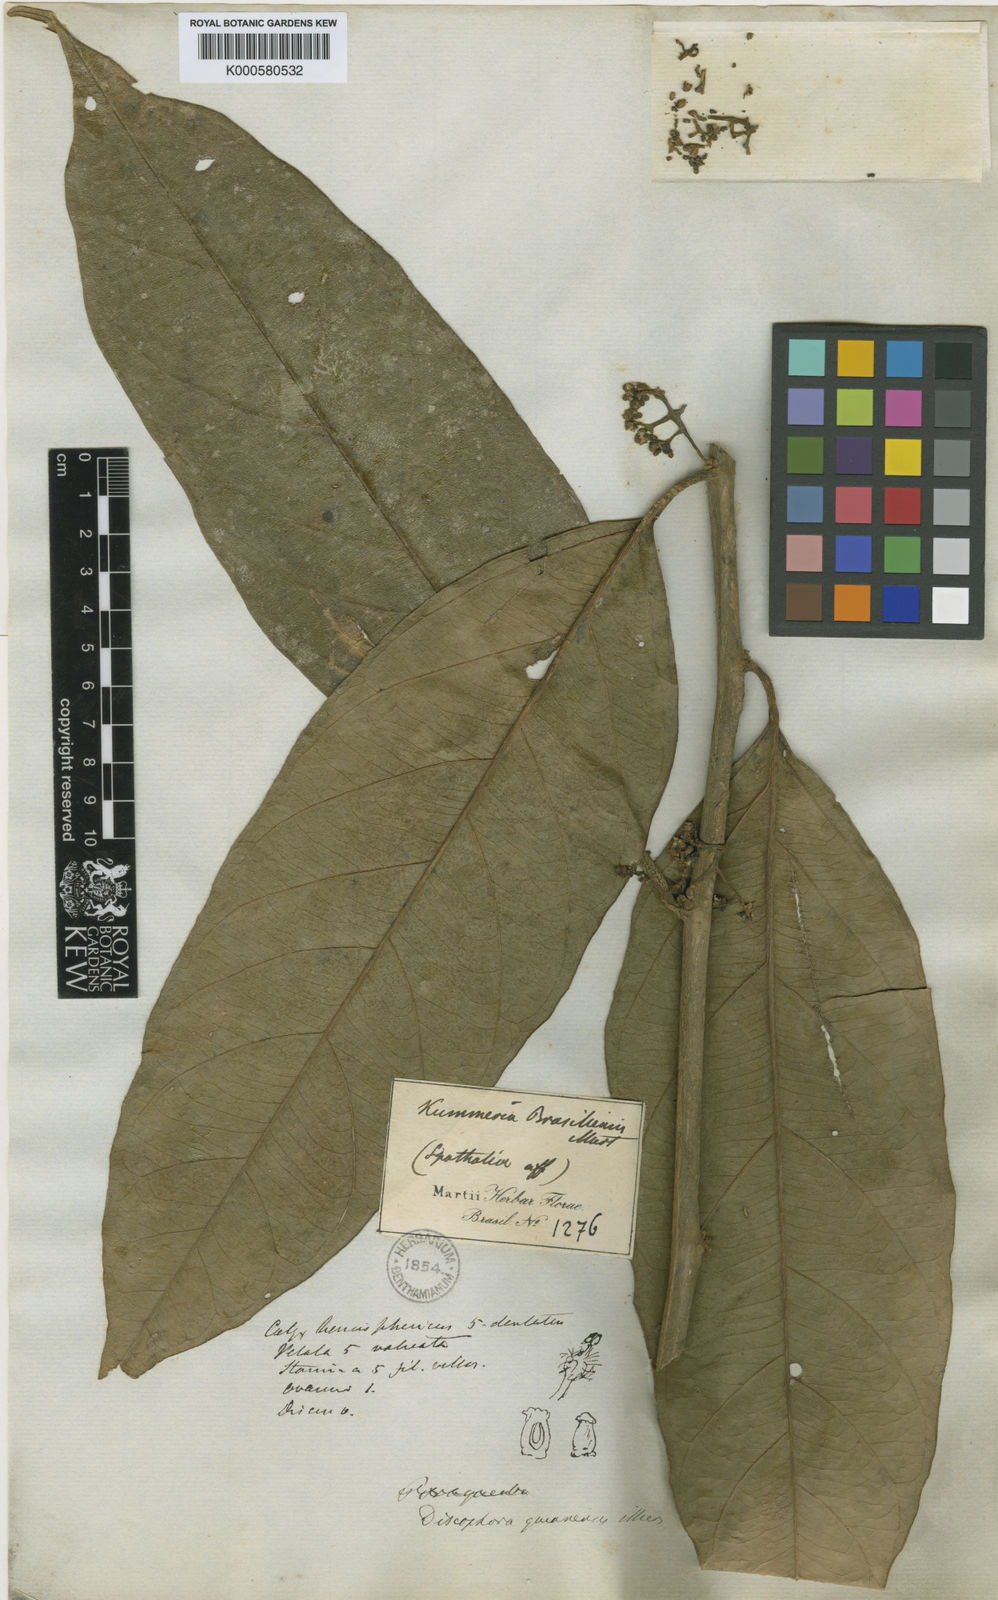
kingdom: Plantae
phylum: Tracheophyta
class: Magnoliopsida
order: Cardiopteridales
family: Stemonuraceae
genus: Discophora
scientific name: Discophora guianensis
